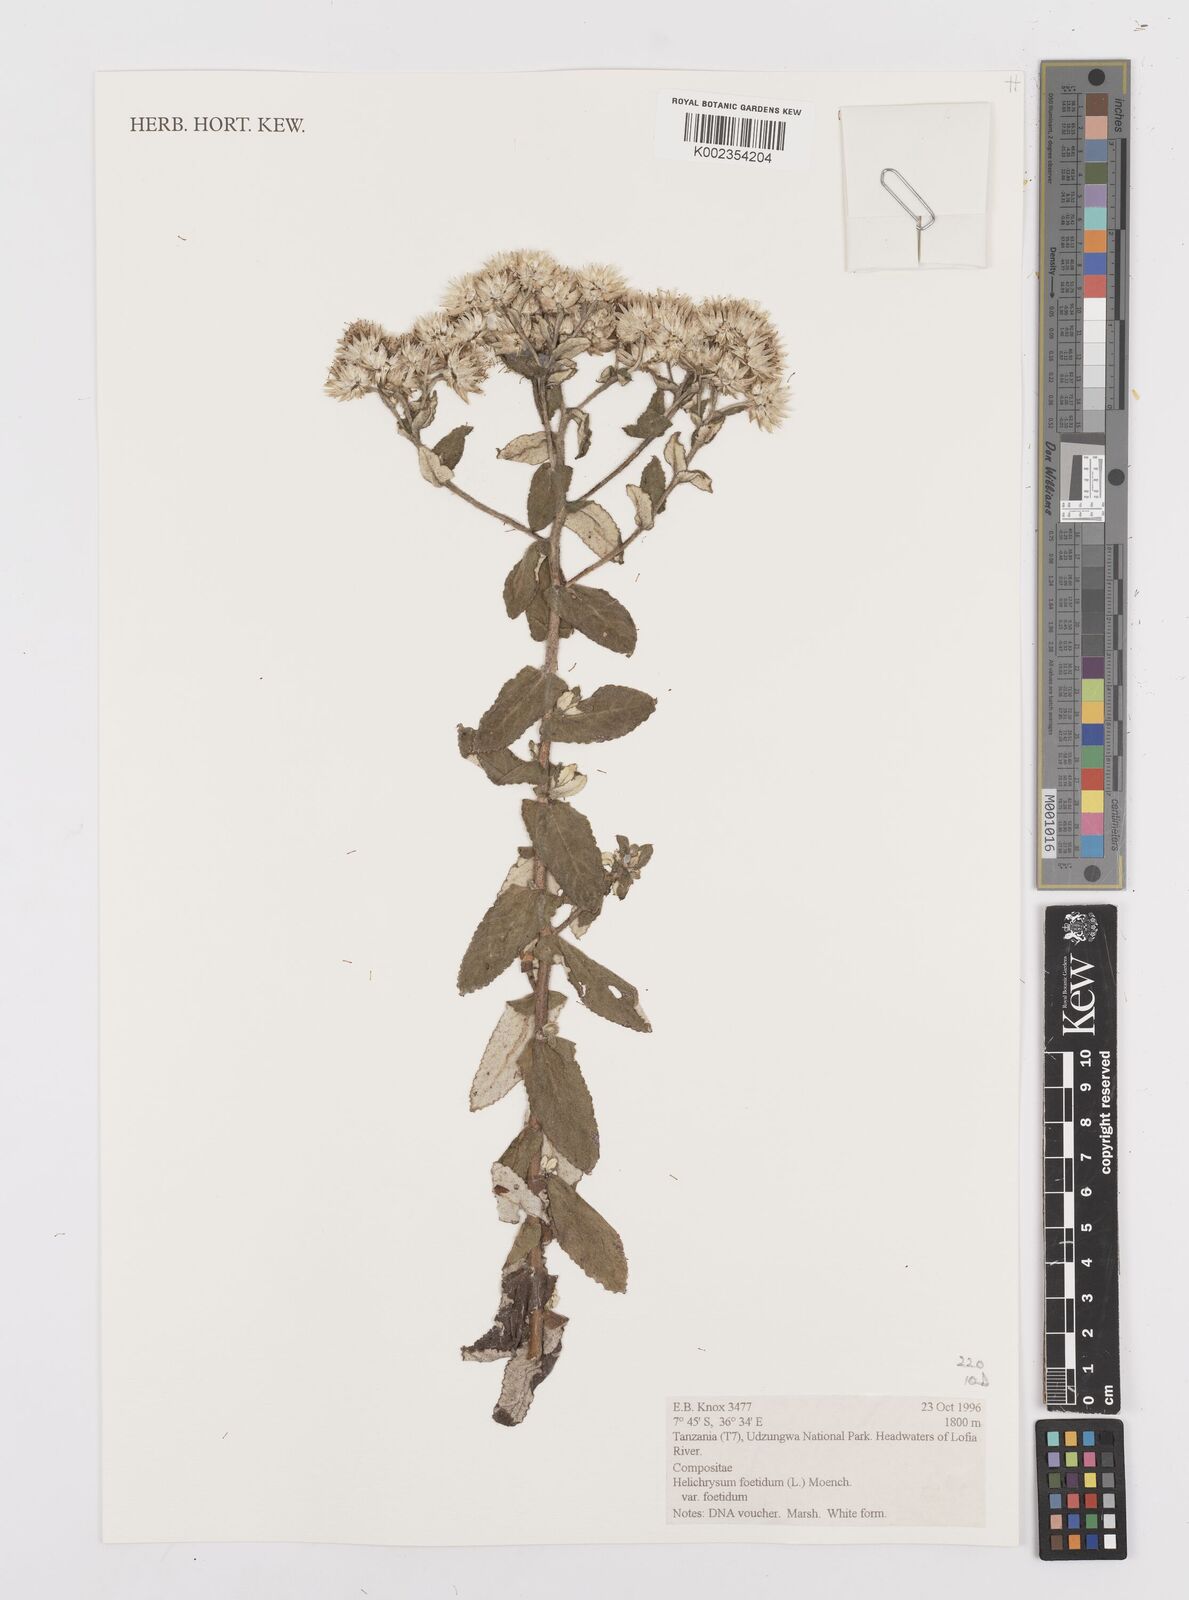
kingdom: Plantae
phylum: Tracheophyta
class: Magnoliopsida
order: Asterales
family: Asteraceae
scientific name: Asteraceae
